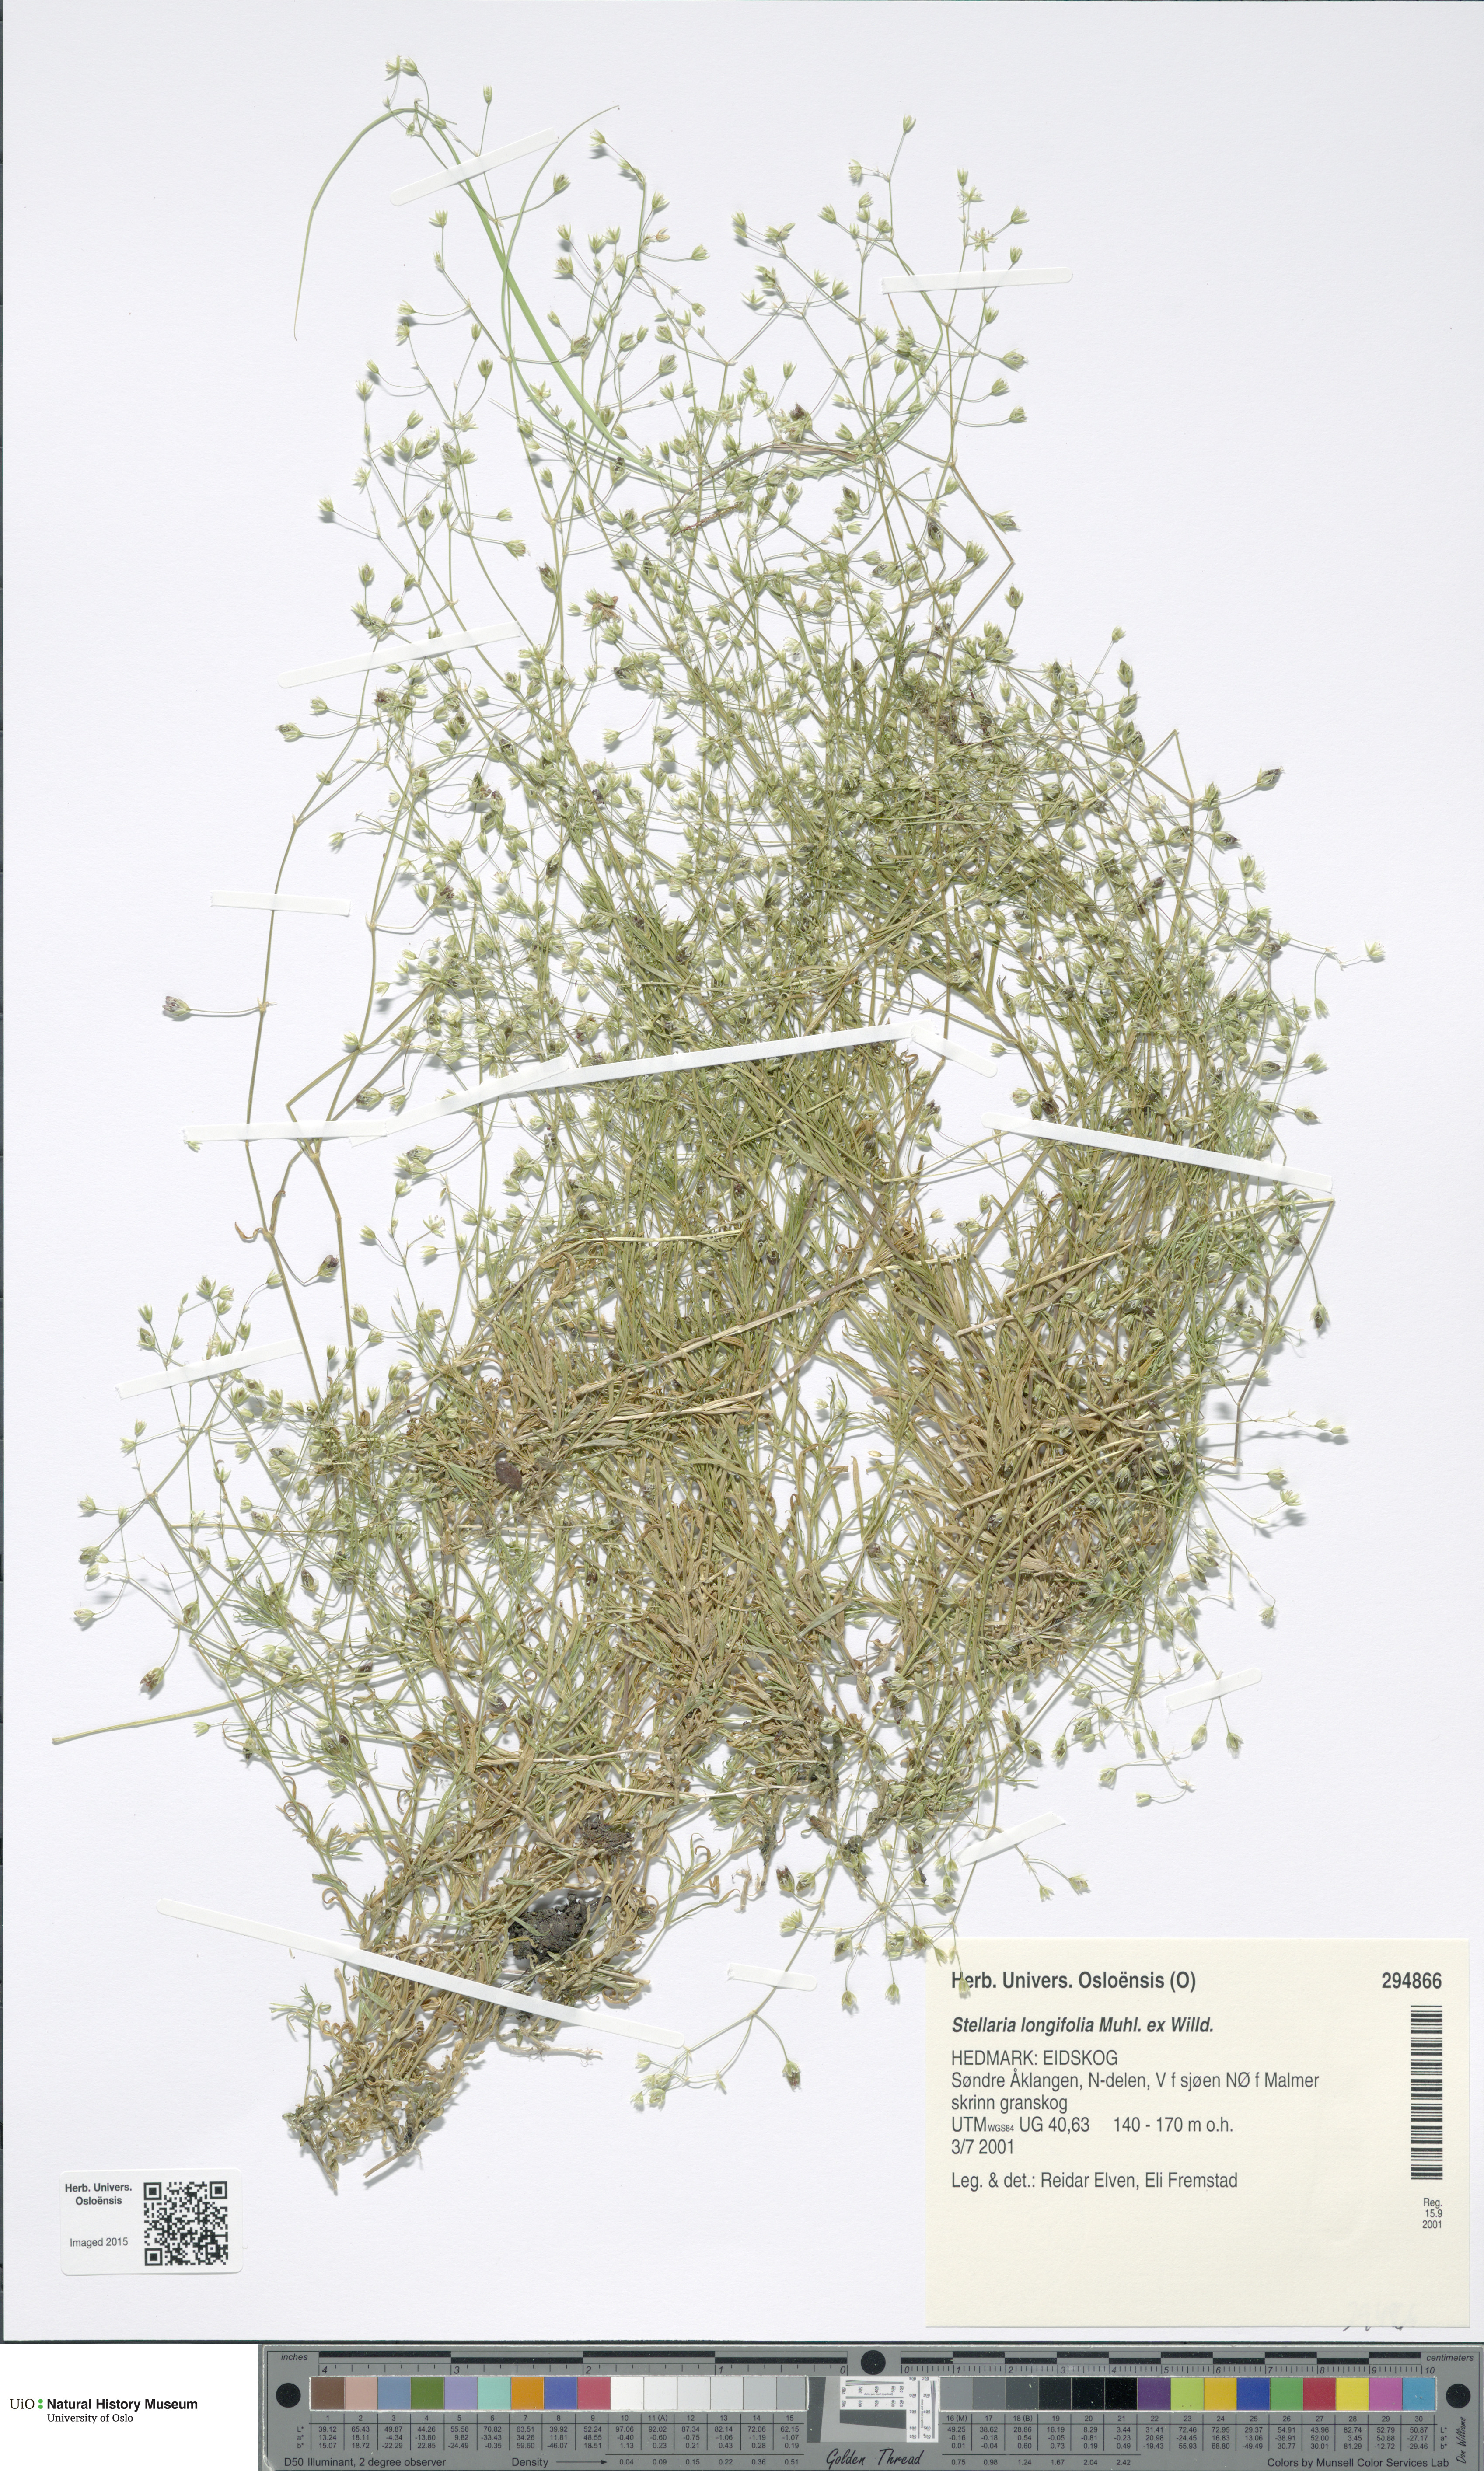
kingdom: Plantae
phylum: Tracheophyta
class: Magnoliopsida
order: Caryophyllales
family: Caryophyllaceae
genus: Stellaria
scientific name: Stellaria longifolia
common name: Long-leaved chickweed
